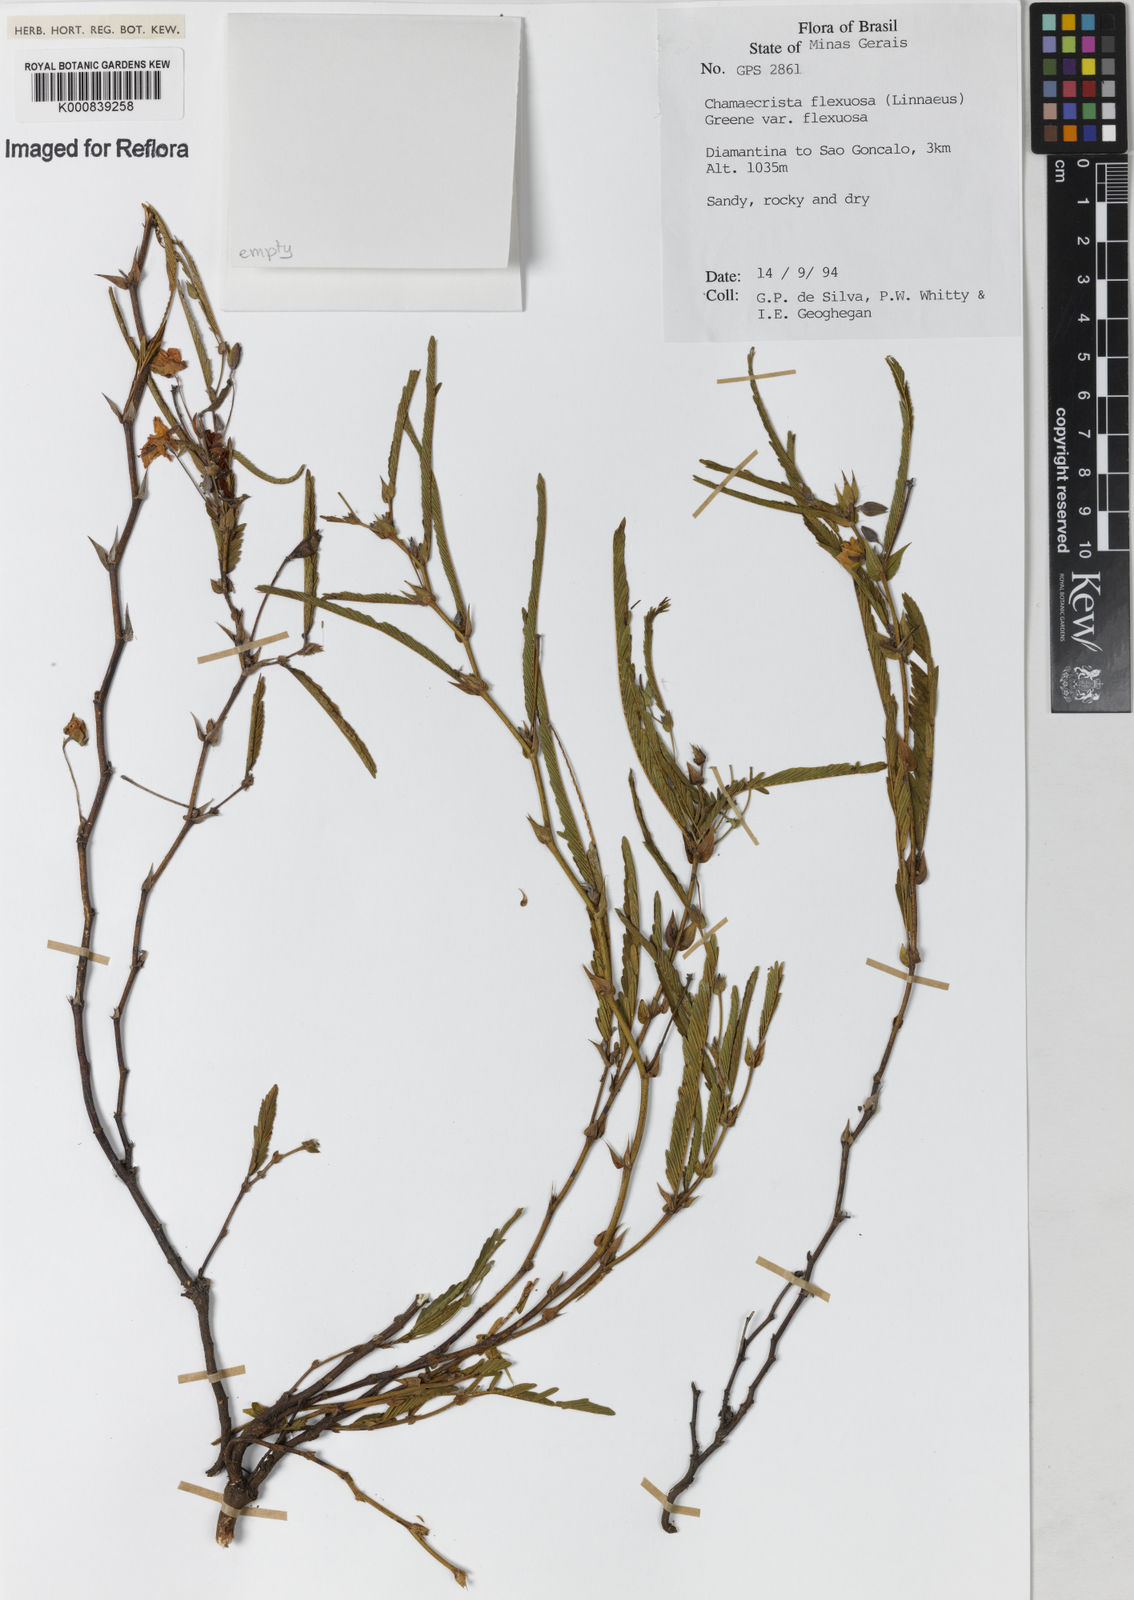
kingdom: Plantae
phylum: Tracheophyta
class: Magnoliopsida
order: Fabales
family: Fabaceae
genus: Chamaecrista
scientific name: Chamaecrista flexuosa
